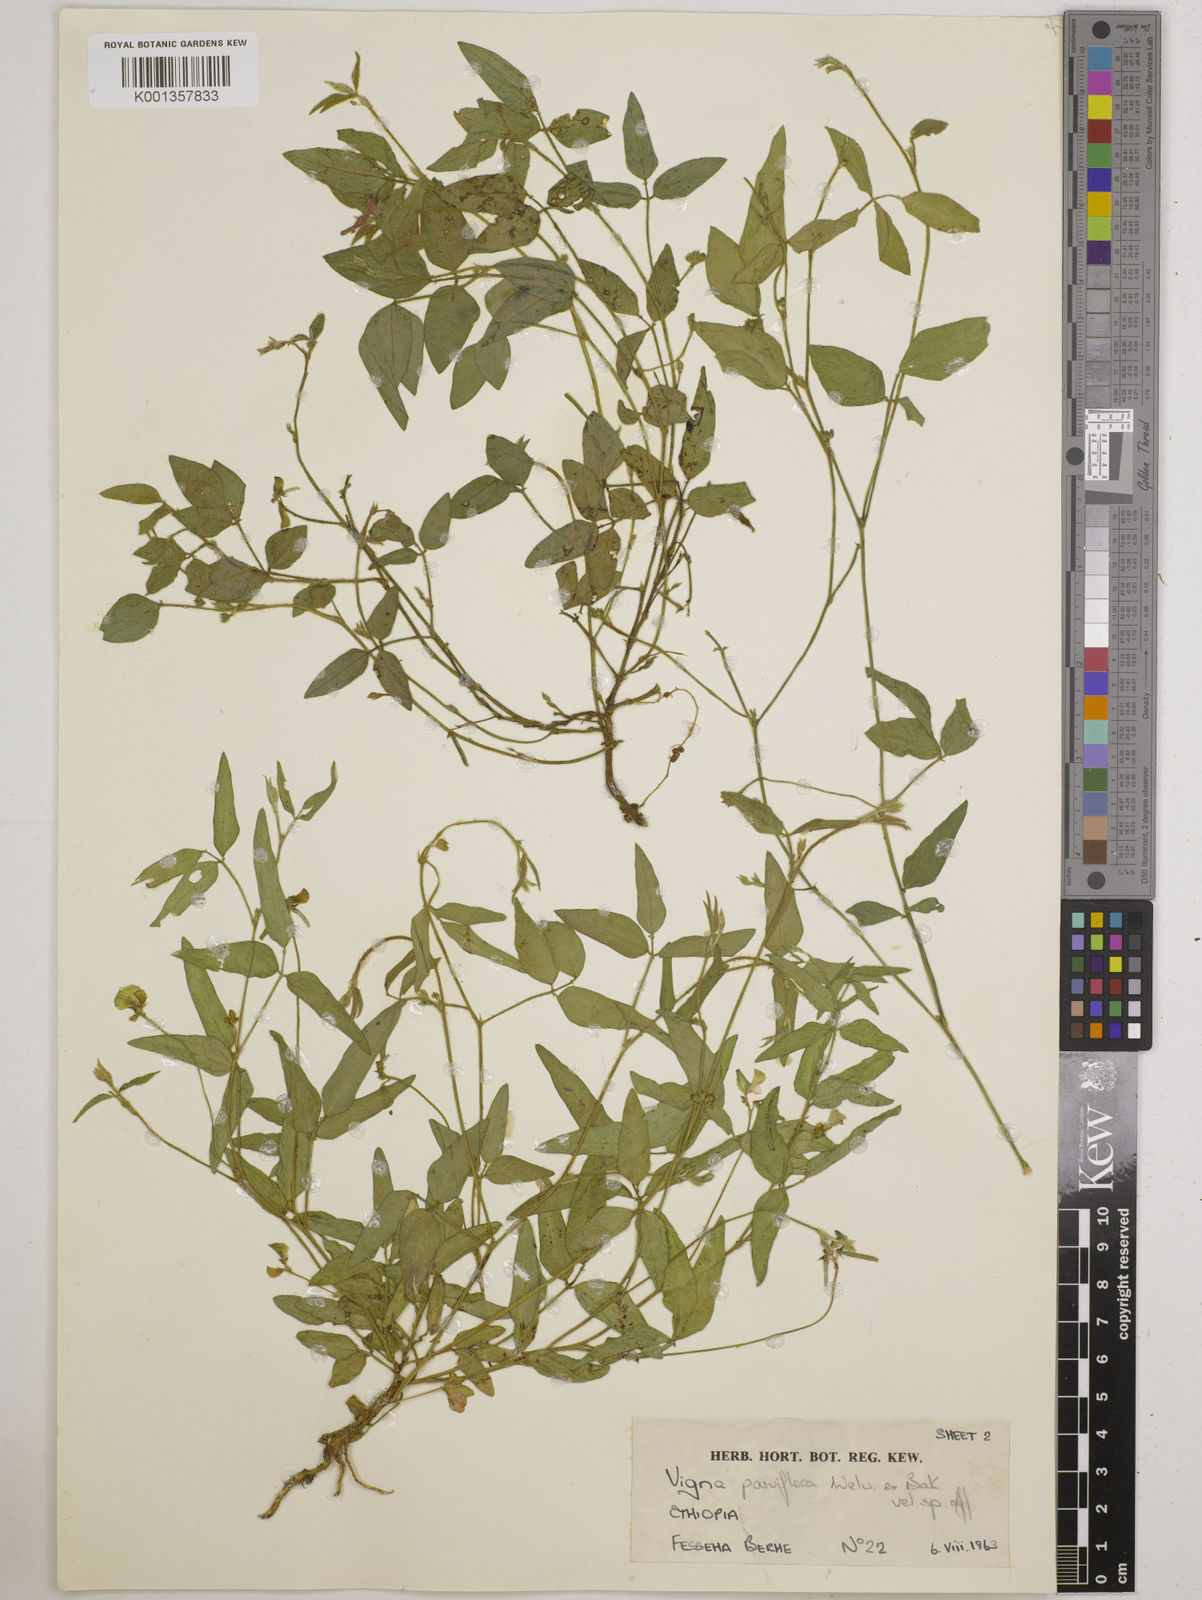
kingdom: Plantae
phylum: Tracheophyta
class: Magnoliopsida
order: Fabales
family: Fabaceae
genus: Vigna
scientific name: Vigna
